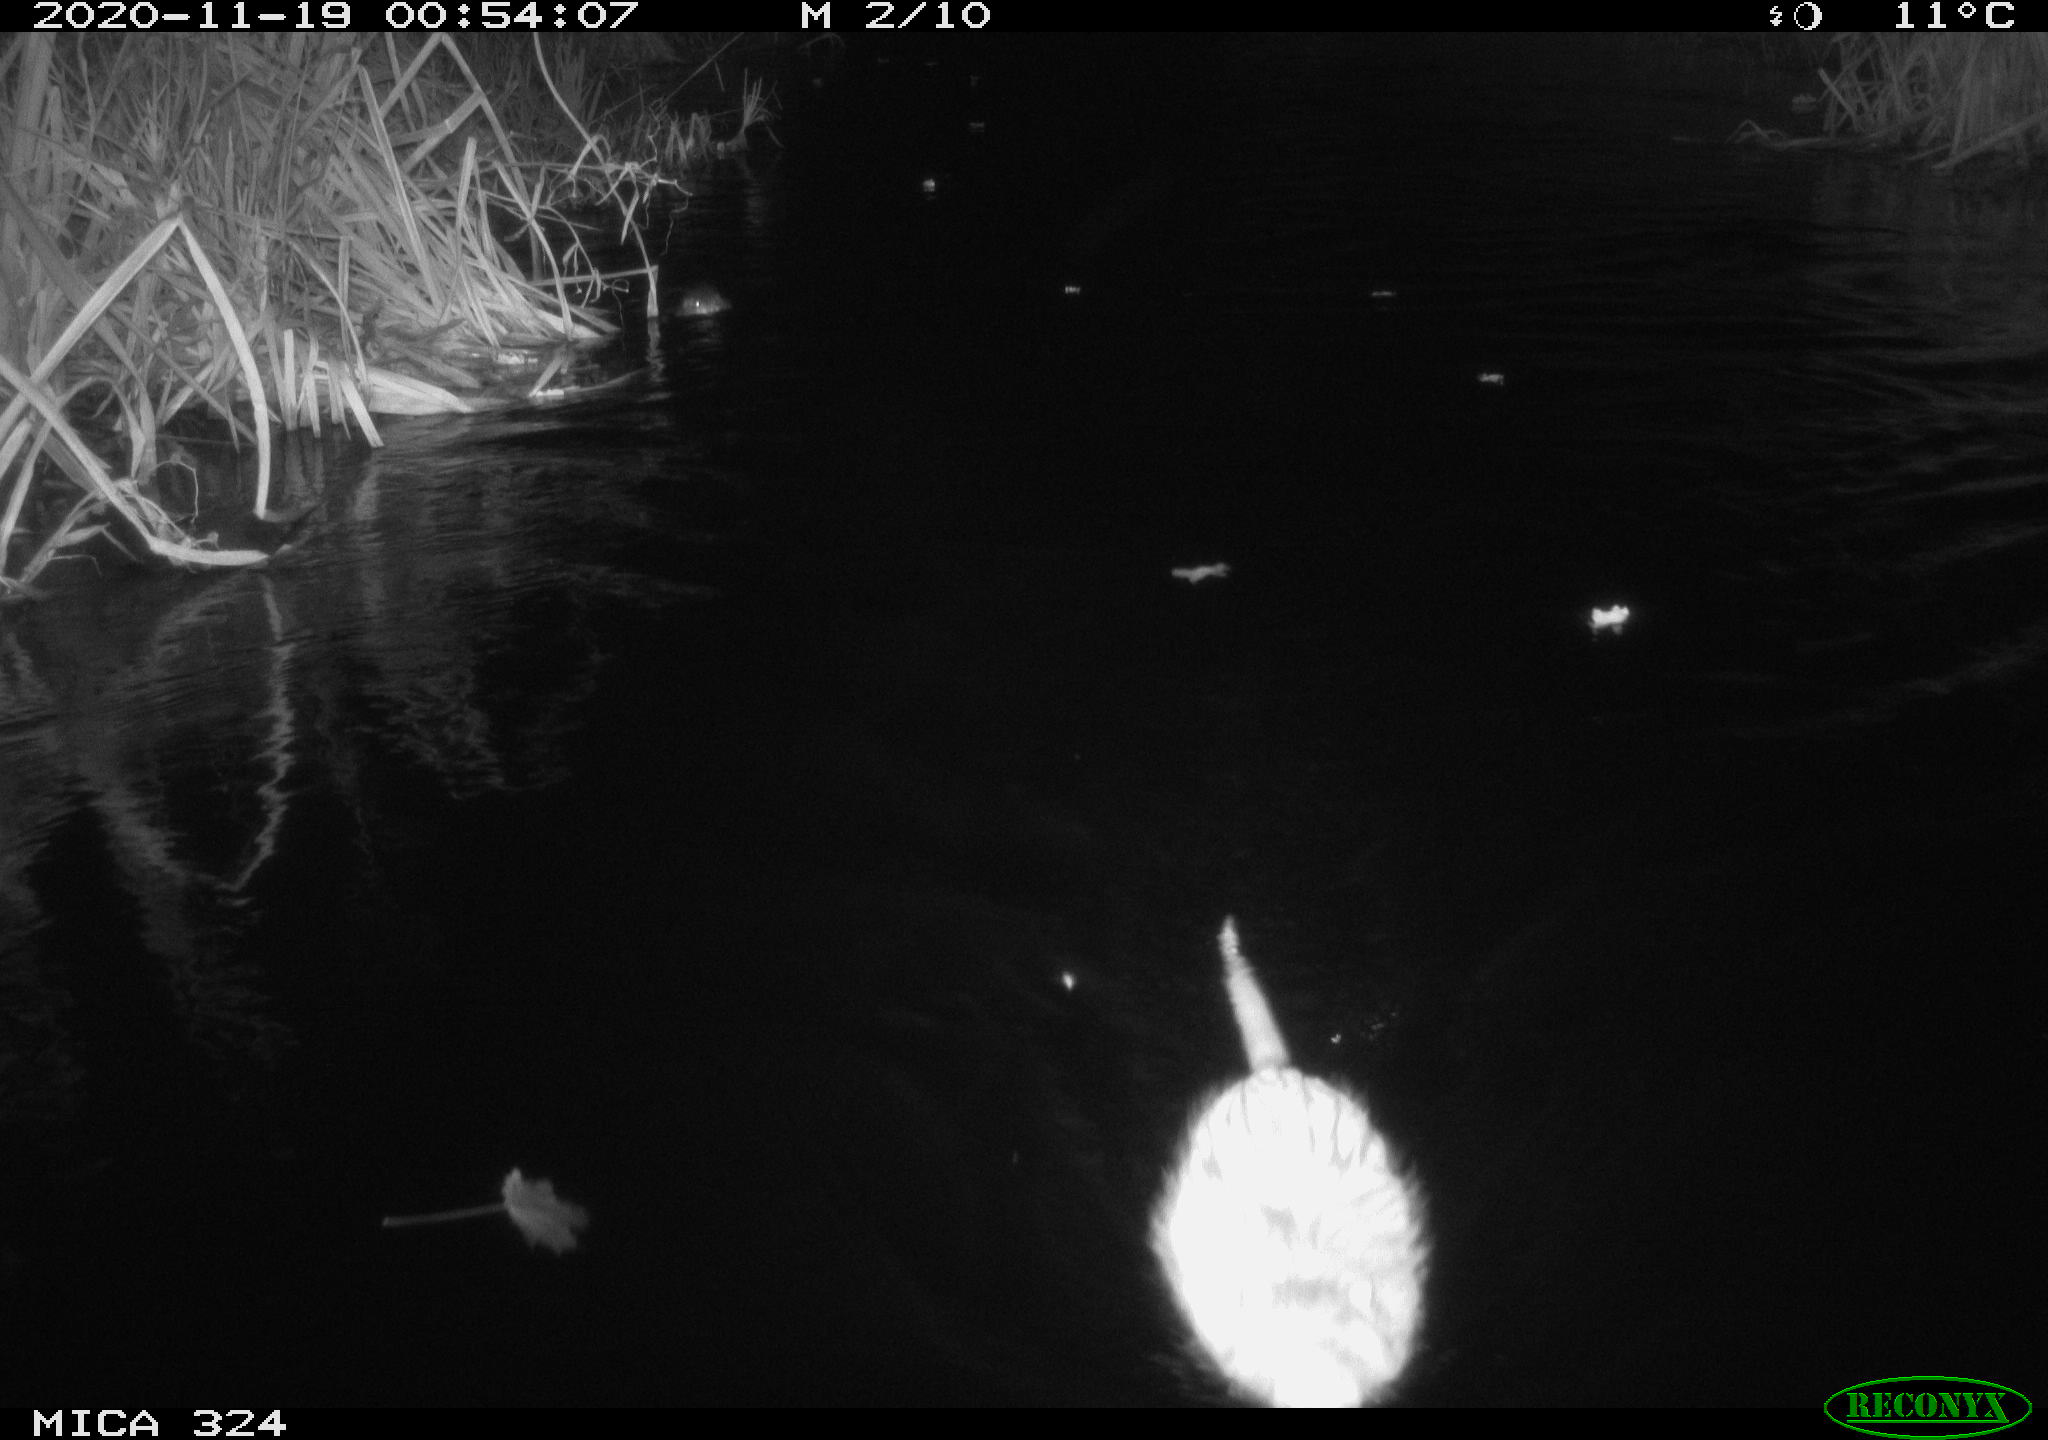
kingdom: Animalia
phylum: Chordata
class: Mammalia
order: Rodentia
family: Myocastoridae
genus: Myocastor
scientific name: Myocastor coypus
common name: Coypu
